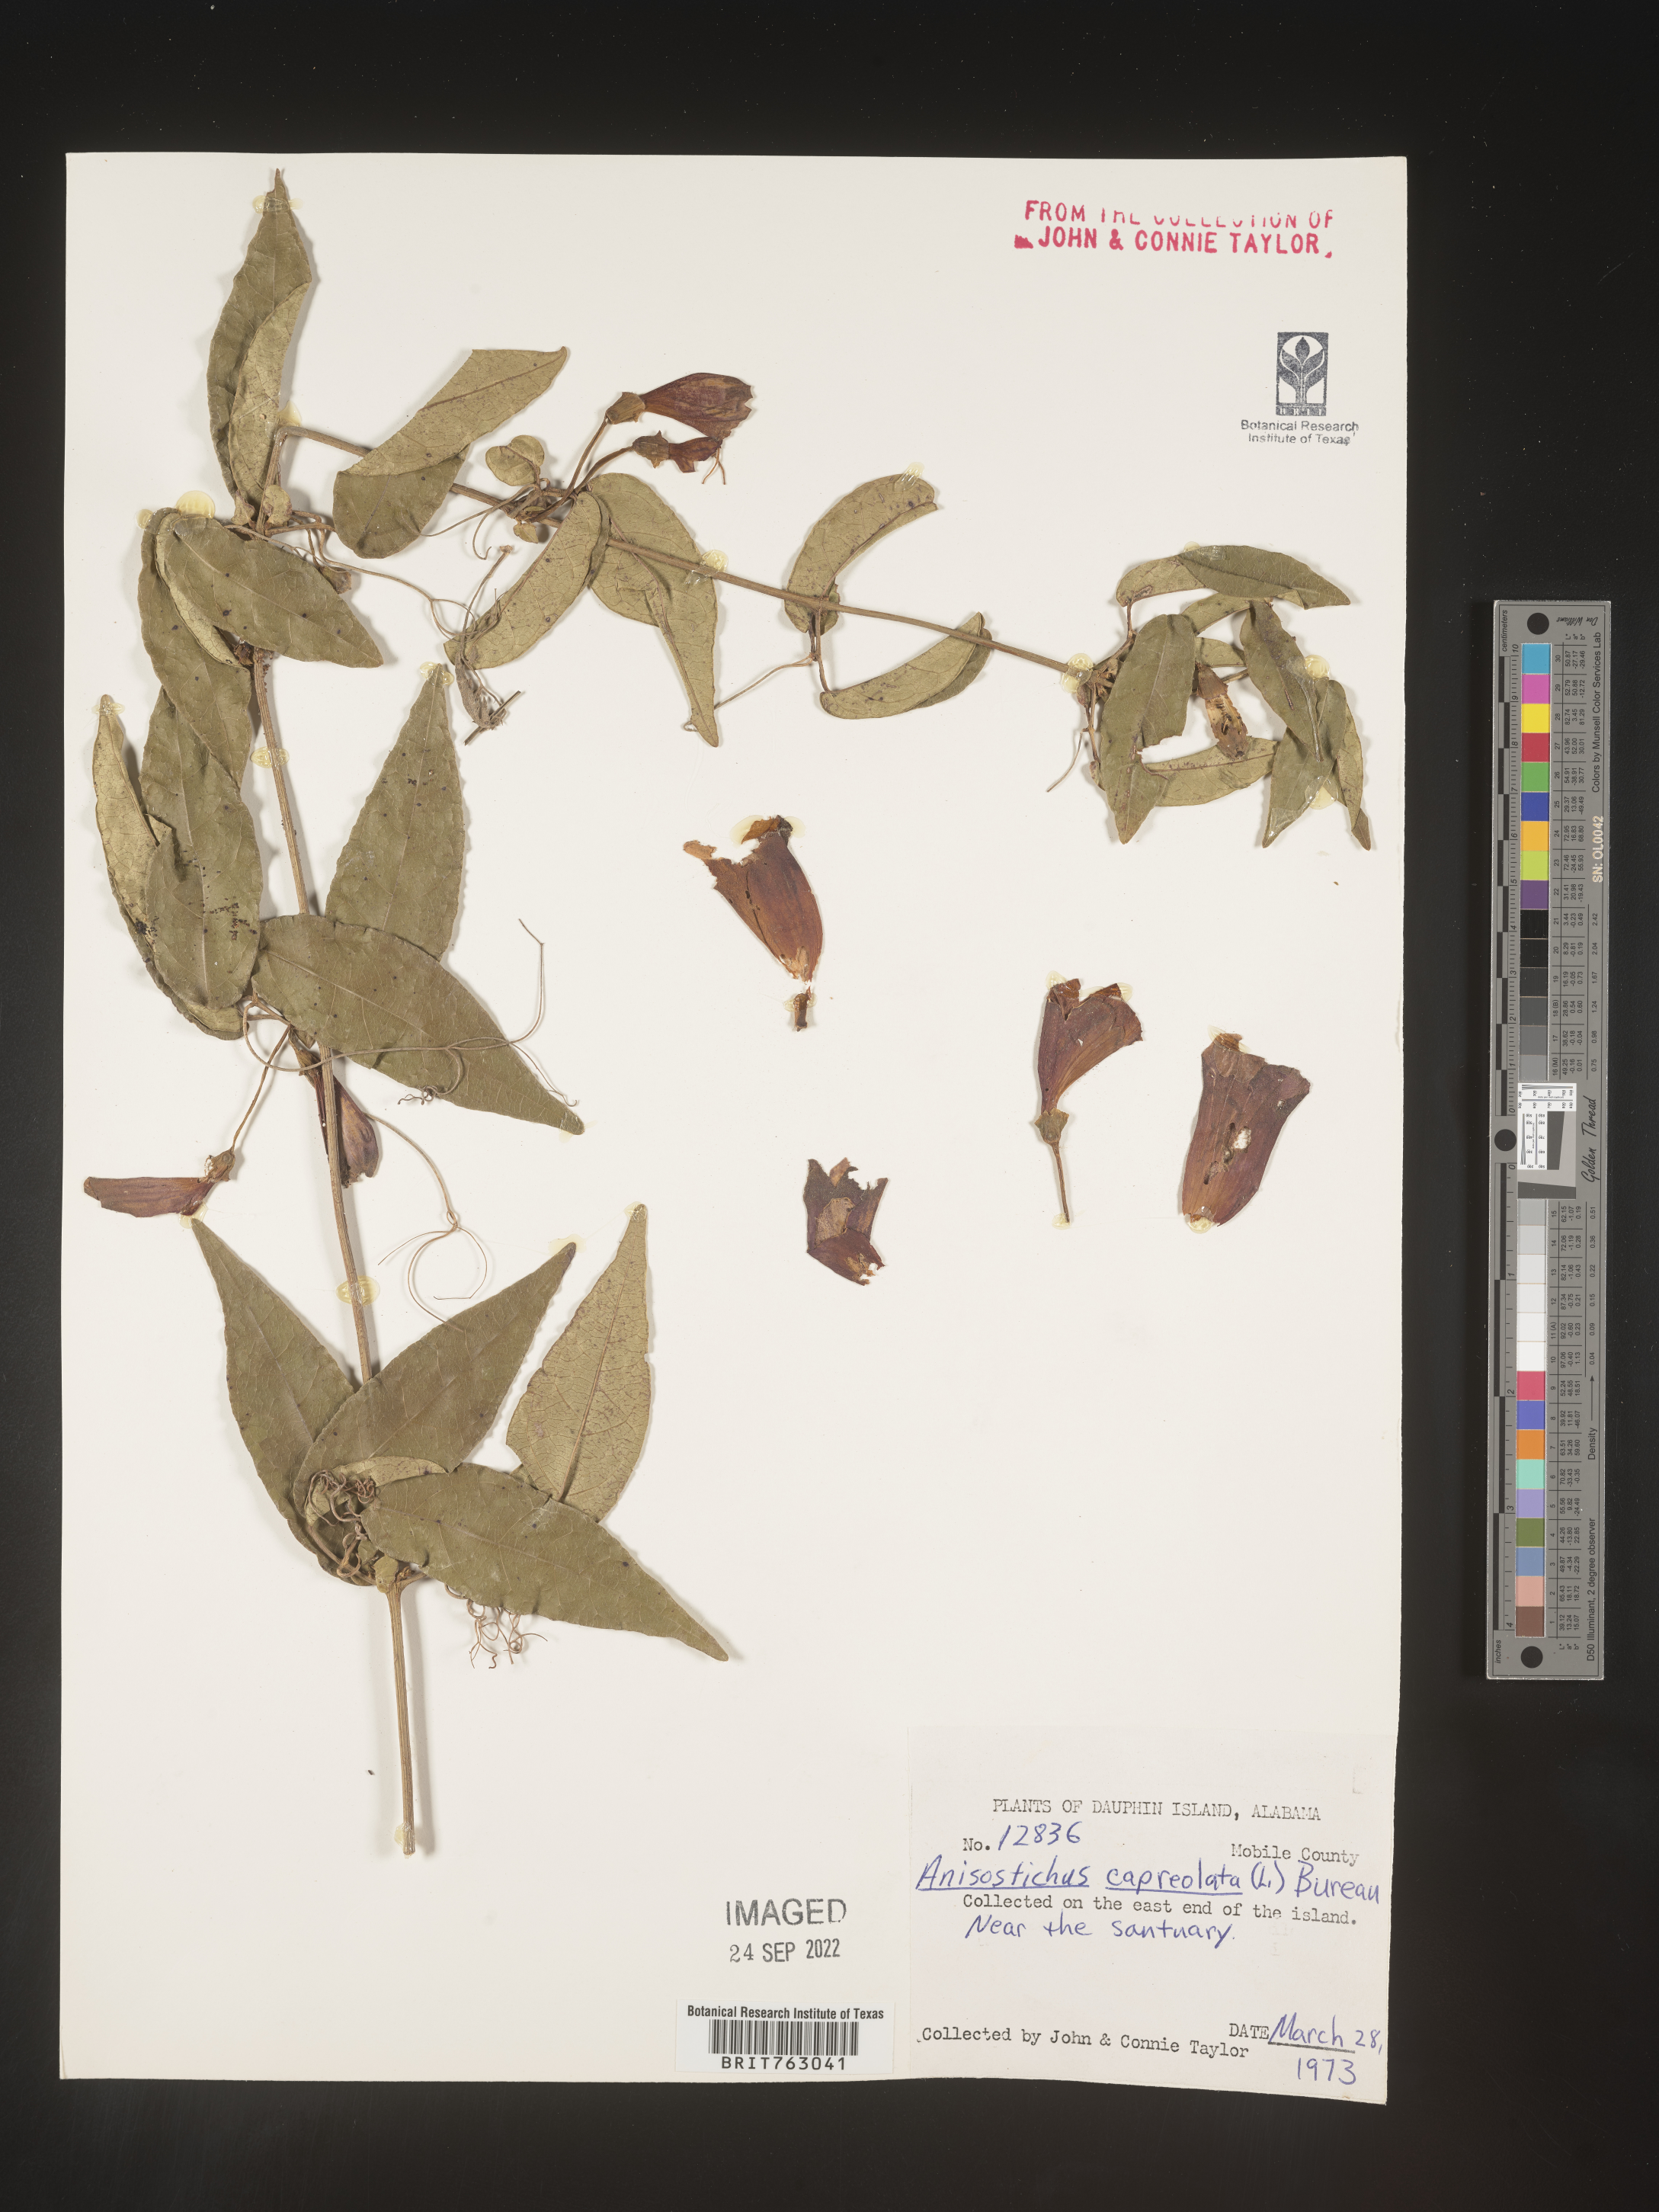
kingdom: Plantae
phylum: Tracheophyta
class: Magnoliopsida
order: Lamiales
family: Bignoniaceae
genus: Bignonia
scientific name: Bignonia capreolata
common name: Crossvine
